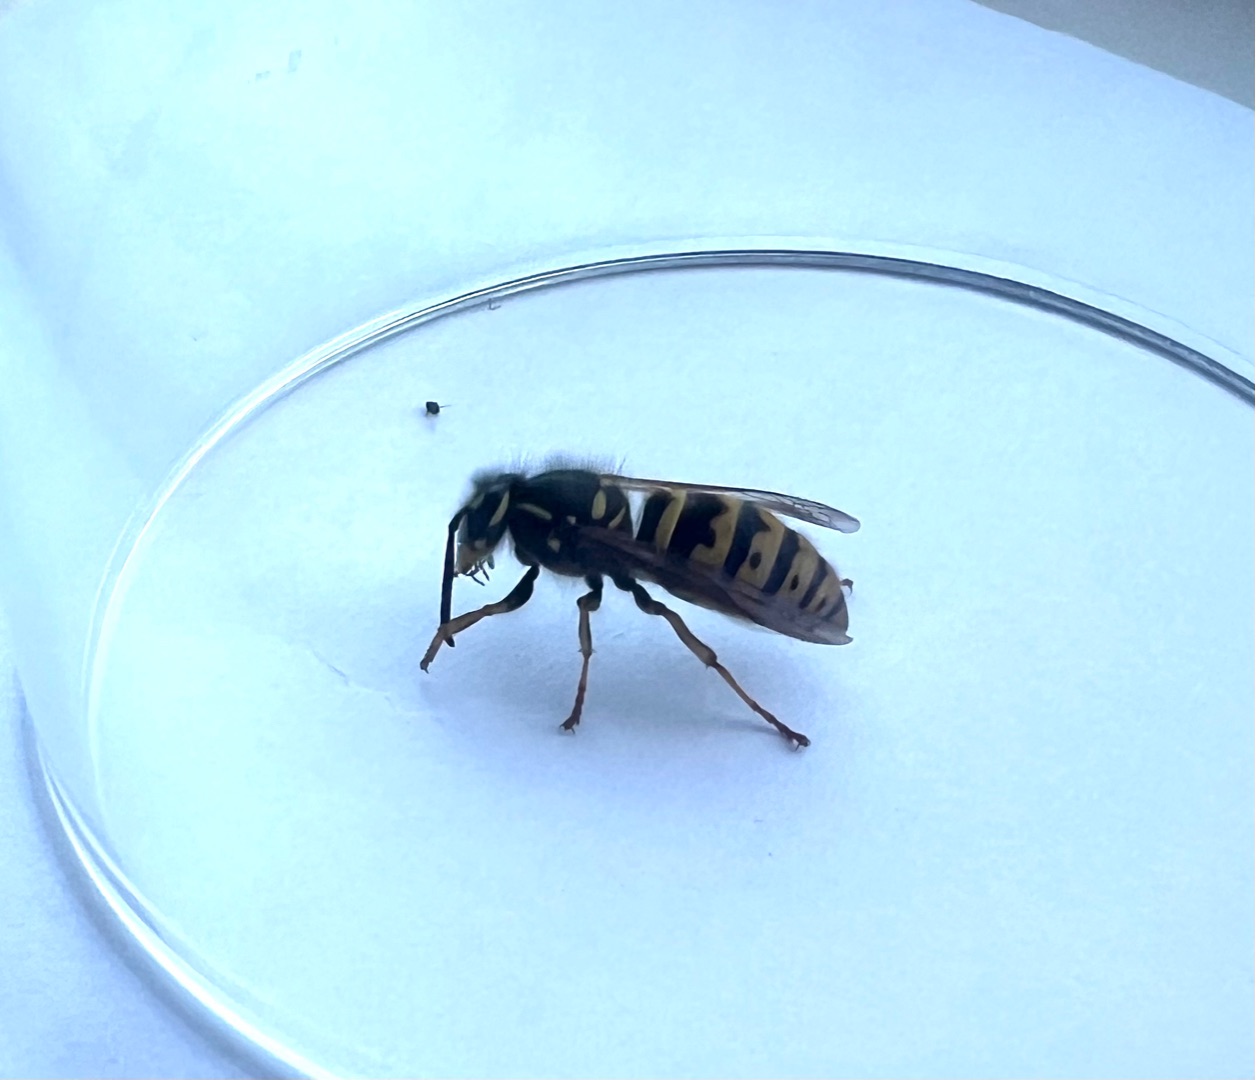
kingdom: Animalia
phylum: Arthropoda
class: Insecta
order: Hymenoptera
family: Vespidae
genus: Vespula
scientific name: Vespula vulgaris
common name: Almindelig gedehams
